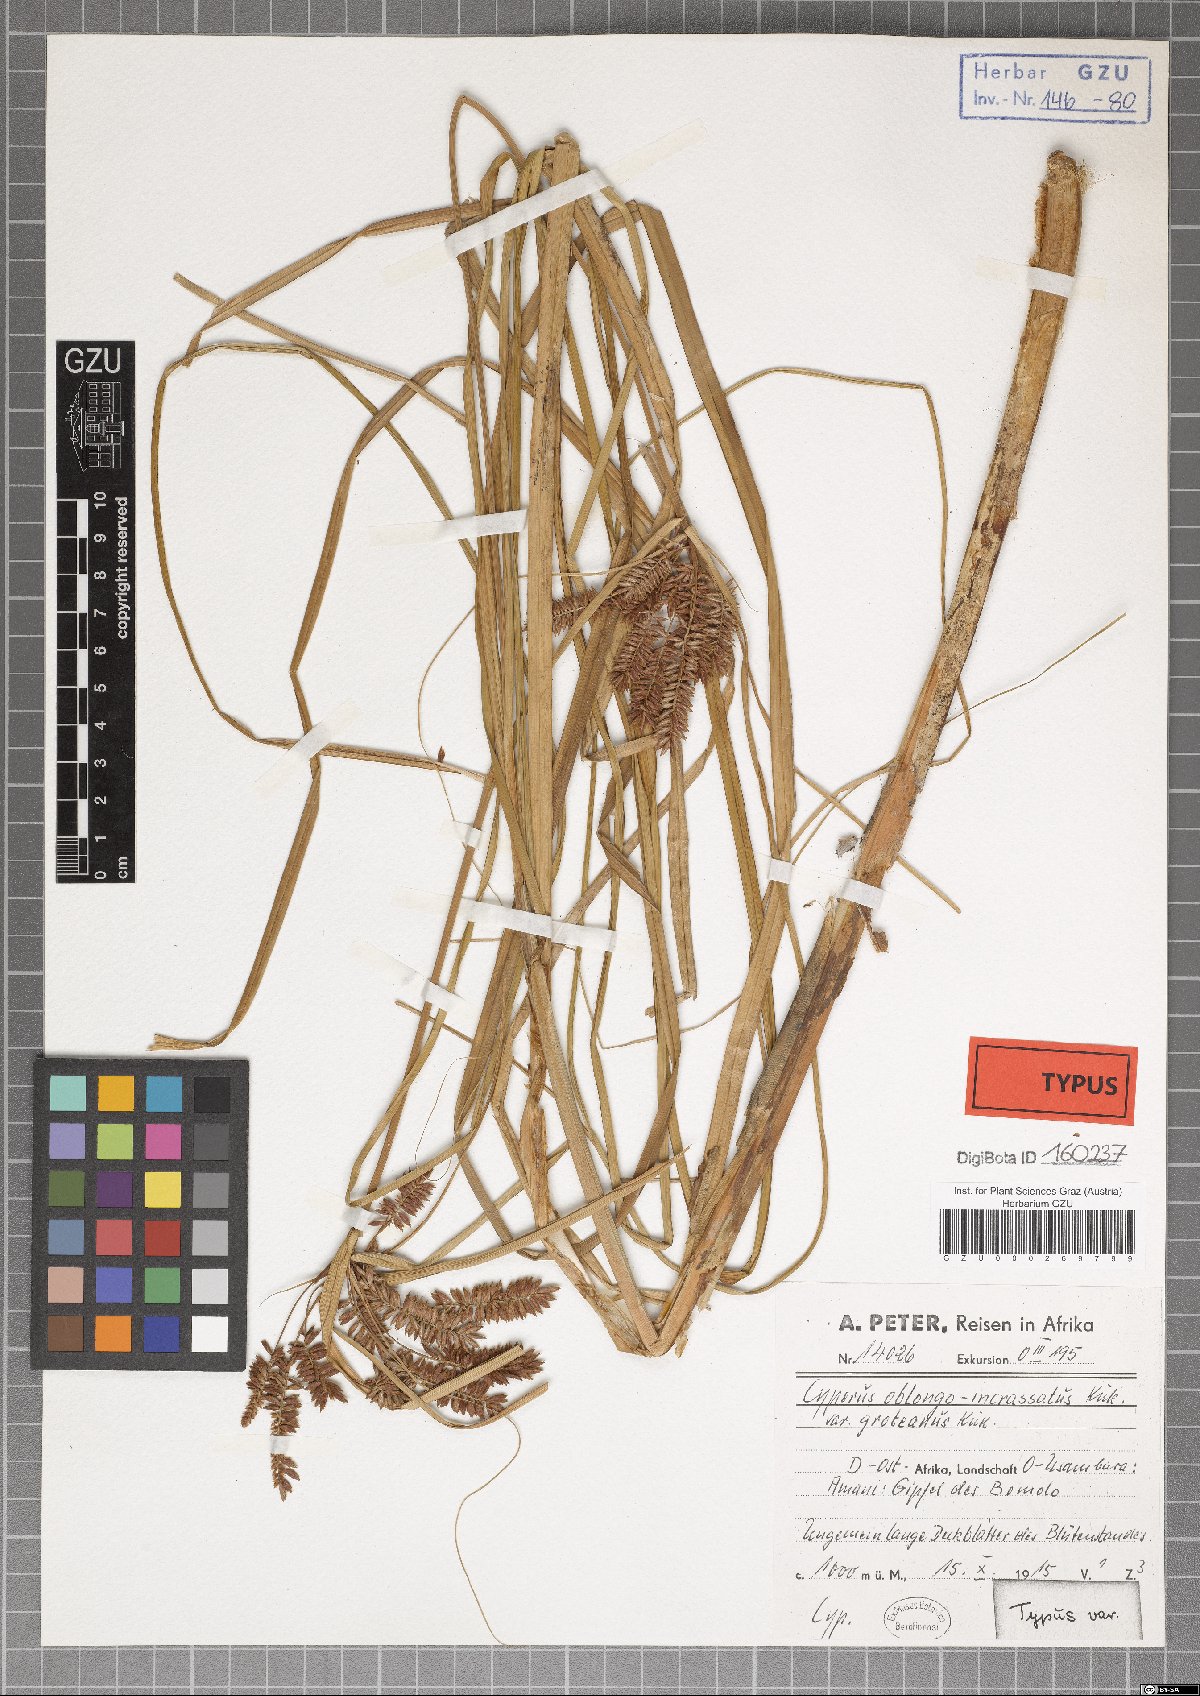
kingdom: Plantae
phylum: Tracheophyta
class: Liliopsida
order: Poales
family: Cyperaceae
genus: Cyperus
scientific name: Cyperus oblongoincrassatus
